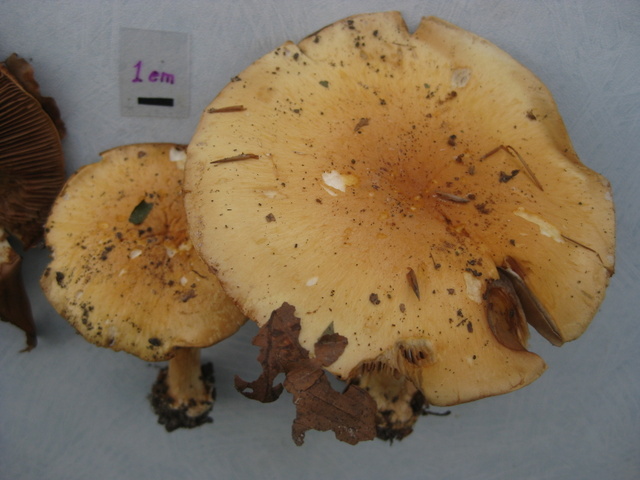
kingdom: Fungi
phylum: Basidiomycota
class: Agaricomycetes
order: Agaricales
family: Cortinariaceae
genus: Phlegmacium
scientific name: Phlegmacium aquilanum
